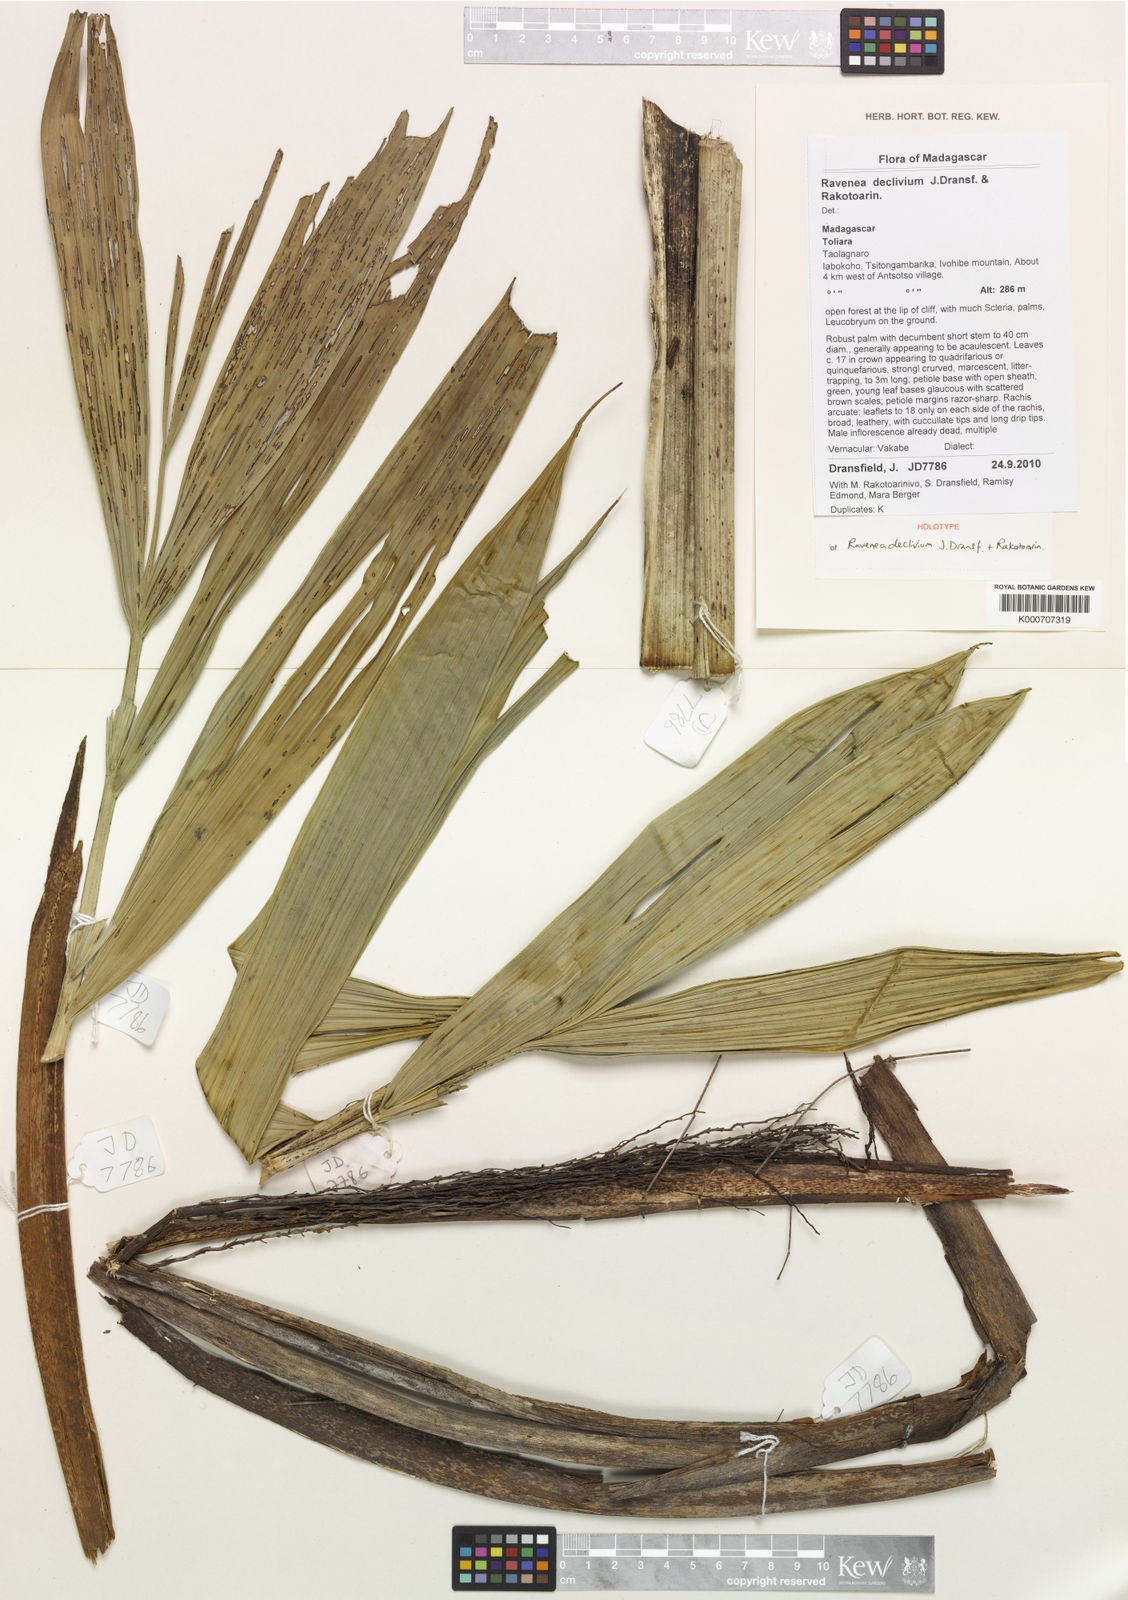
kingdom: Plantae
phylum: Tracheophyta
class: Liliopsida
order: Arecales
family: Arecaceae
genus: Ravenea
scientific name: Ravenea declivium
